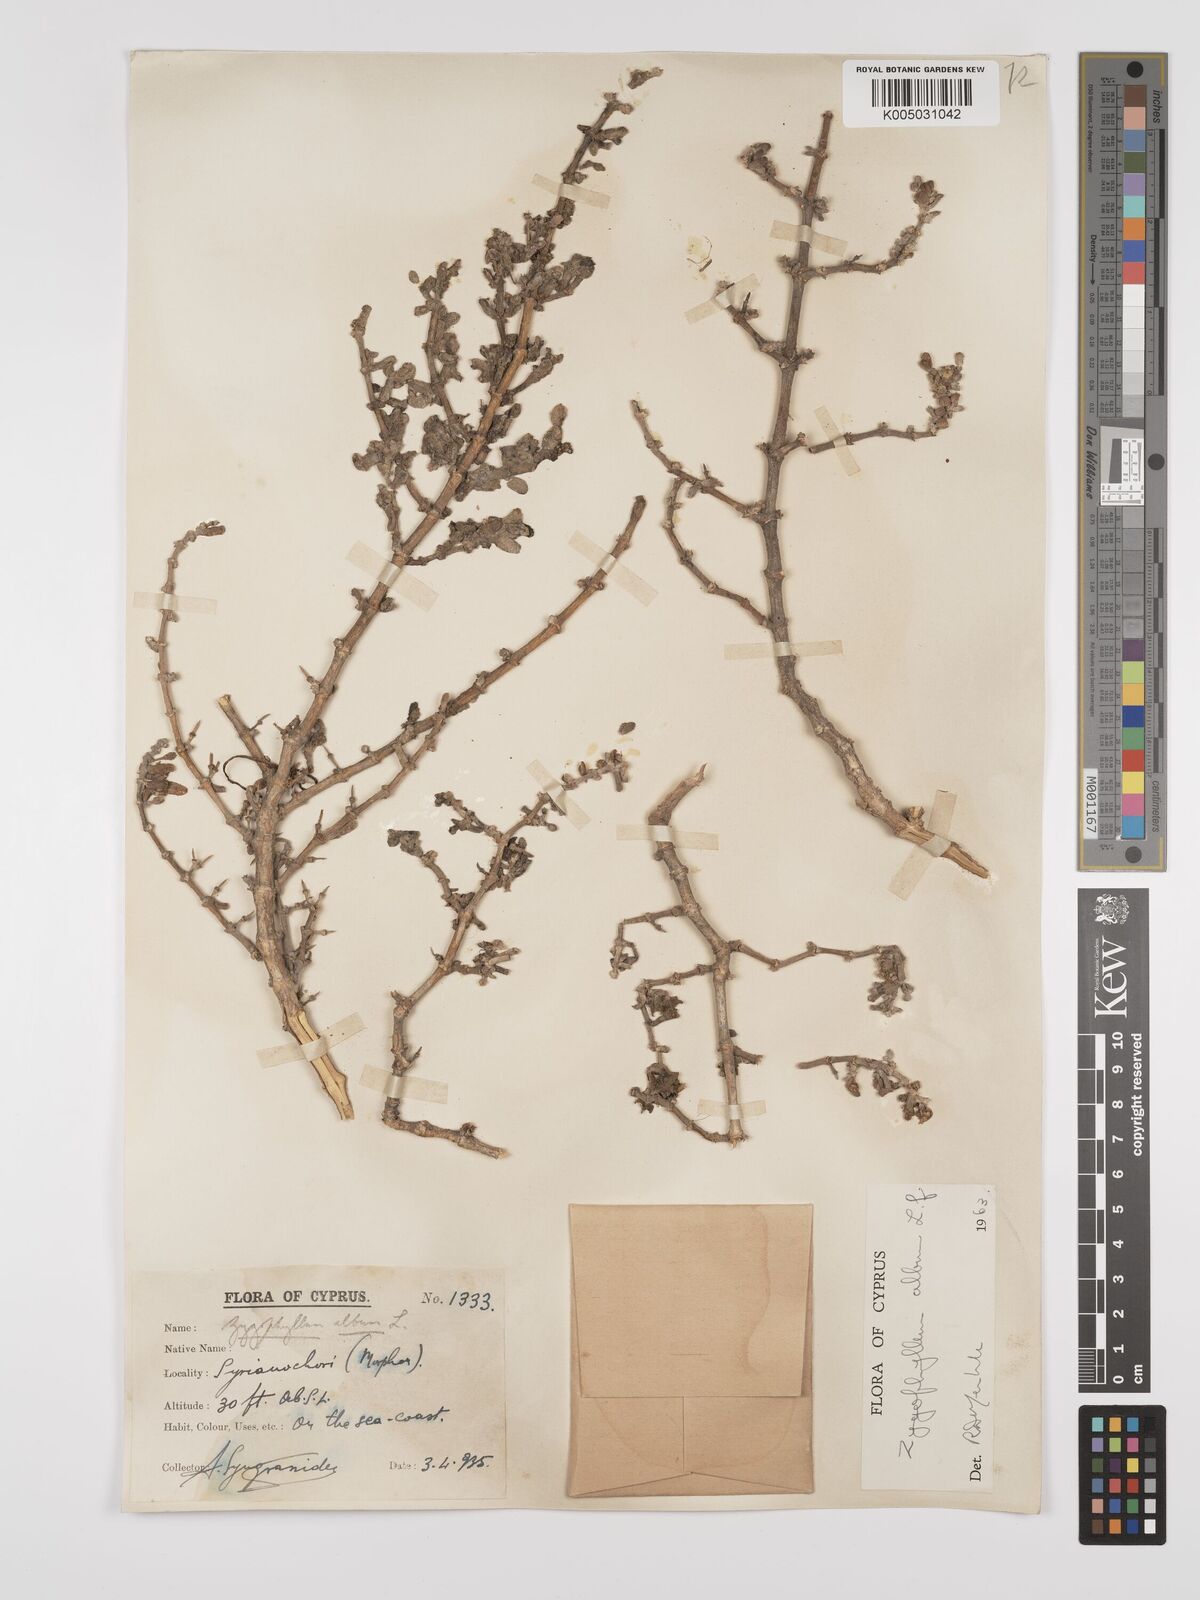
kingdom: Plantae
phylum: Tracheophyta
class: Magnoliopsida
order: Zygophyllales
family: Zygophyllaceae
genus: Zygophyllum
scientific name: Zygophyllum
